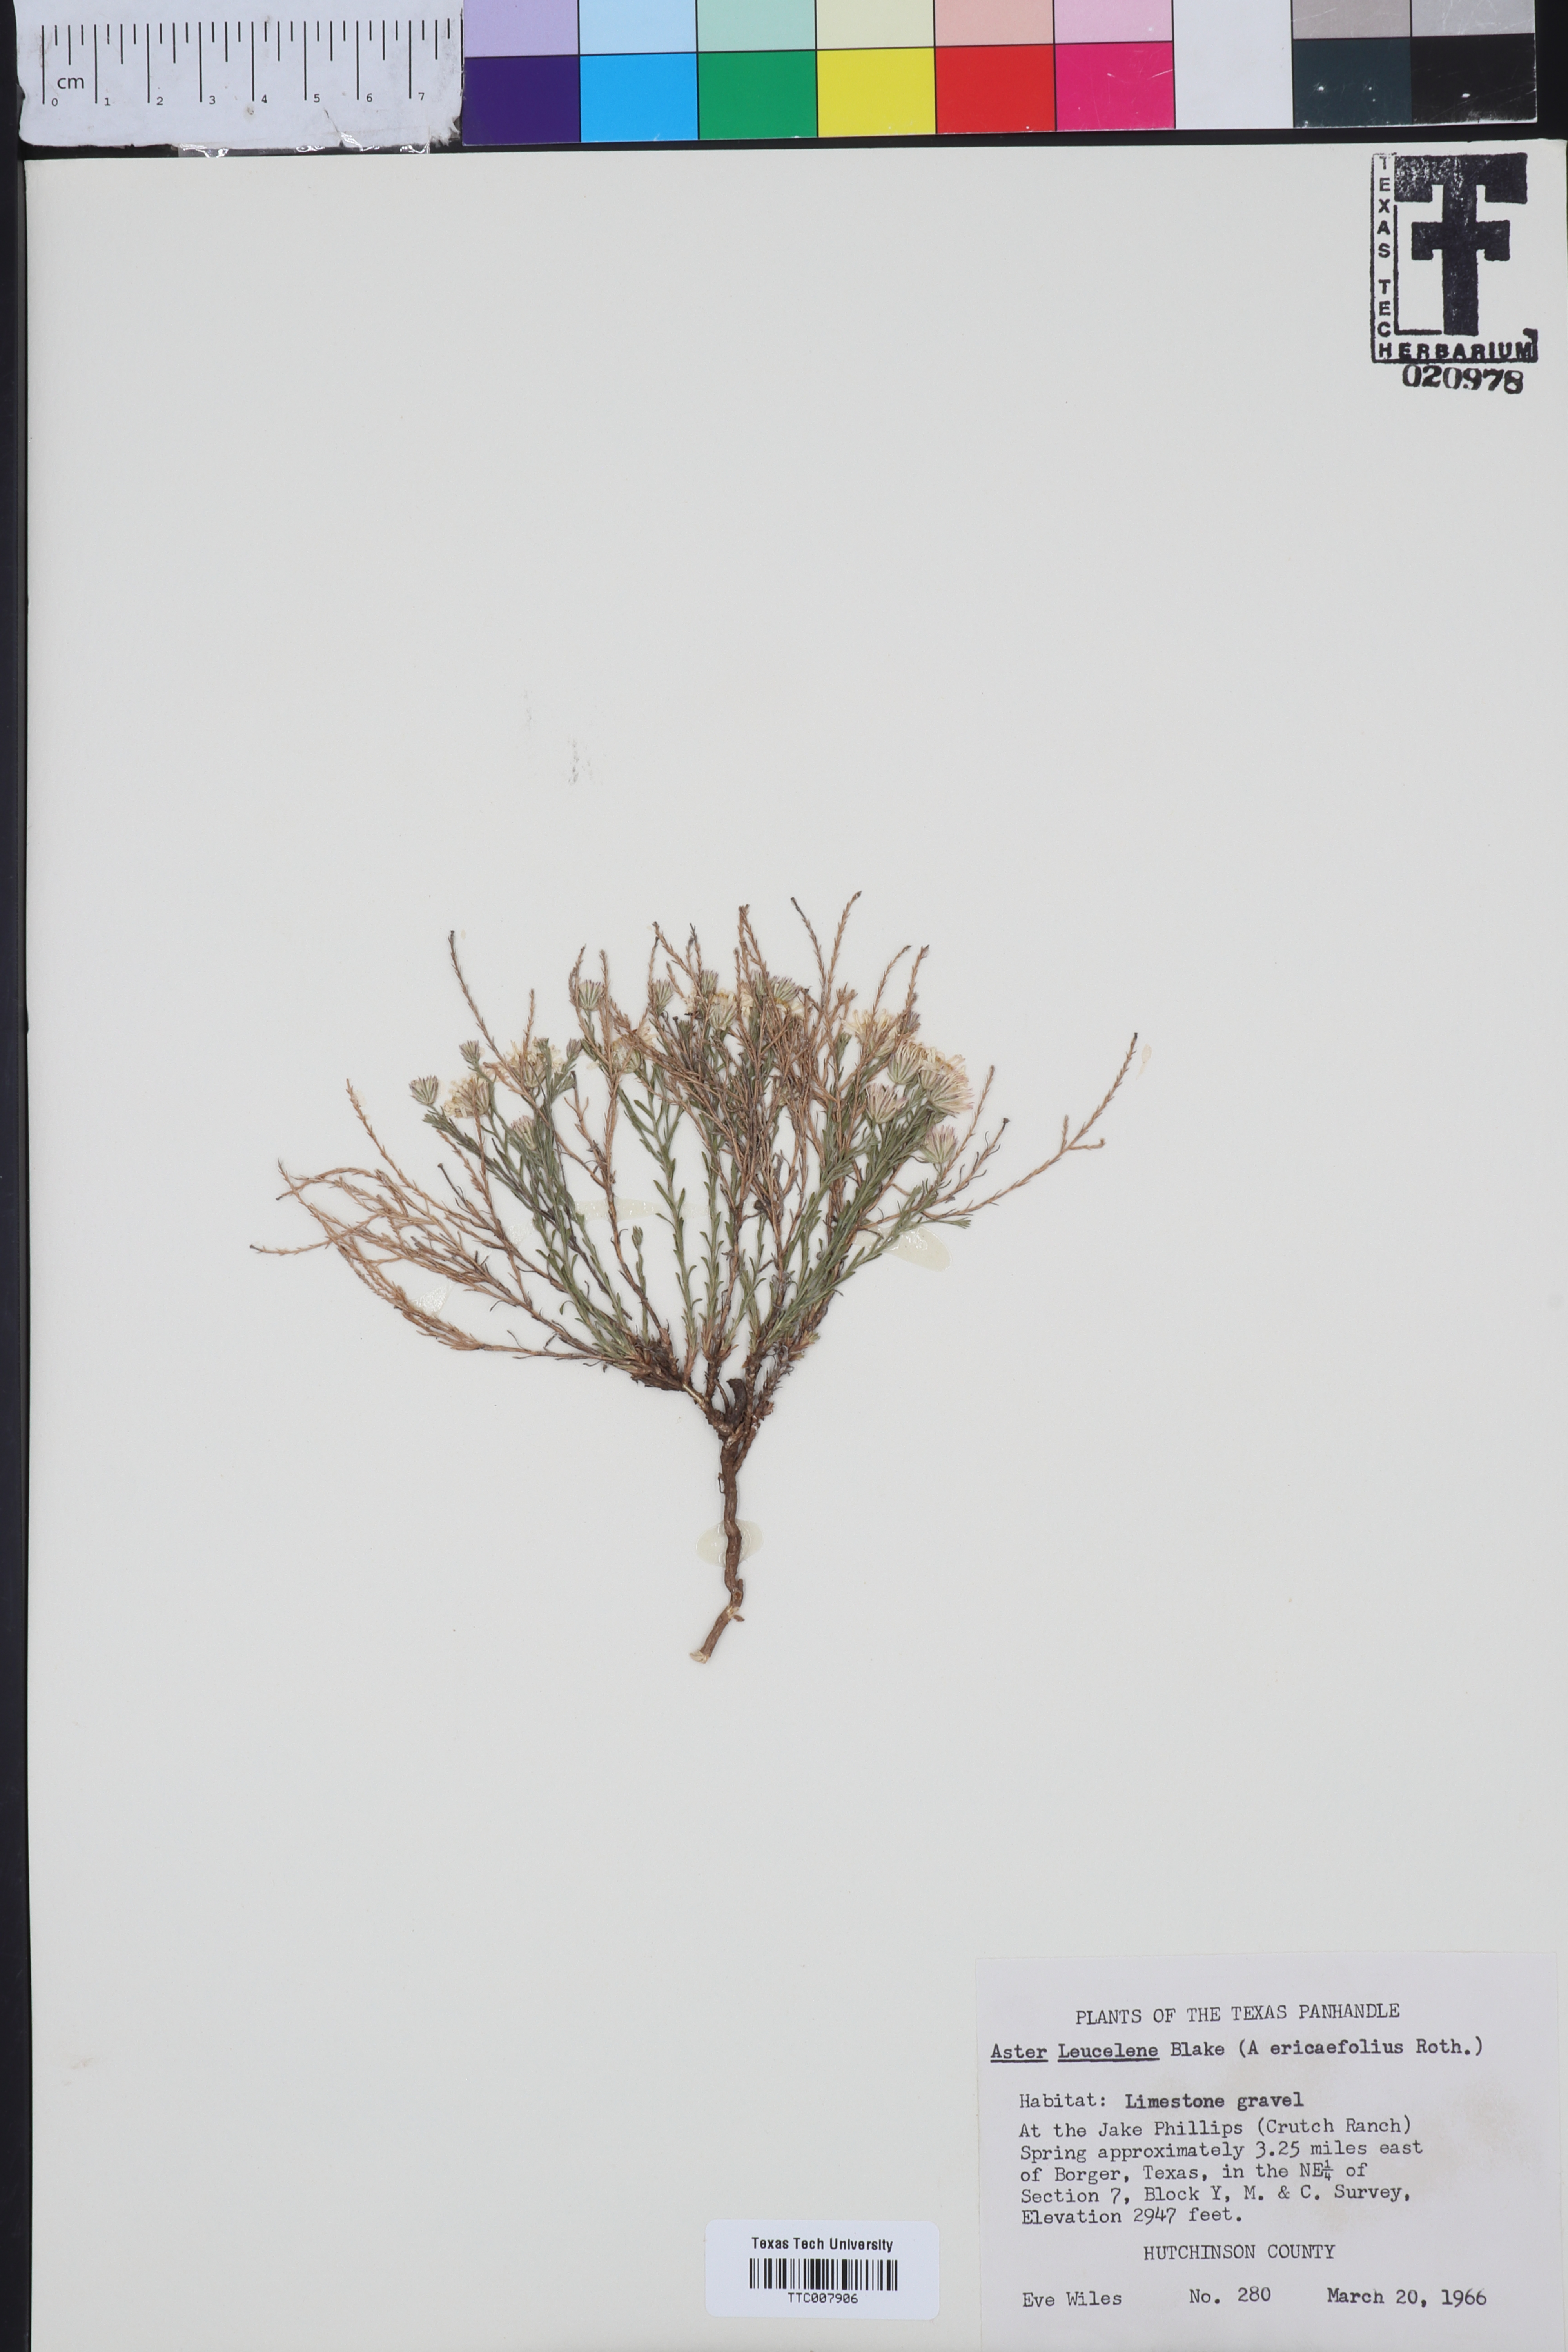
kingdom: Plantae
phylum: Tracheophyta
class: Magnoliopsida
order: Asterales
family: Asteraceae
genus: Chaetopappa
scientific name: Chaetopappa ericoides
